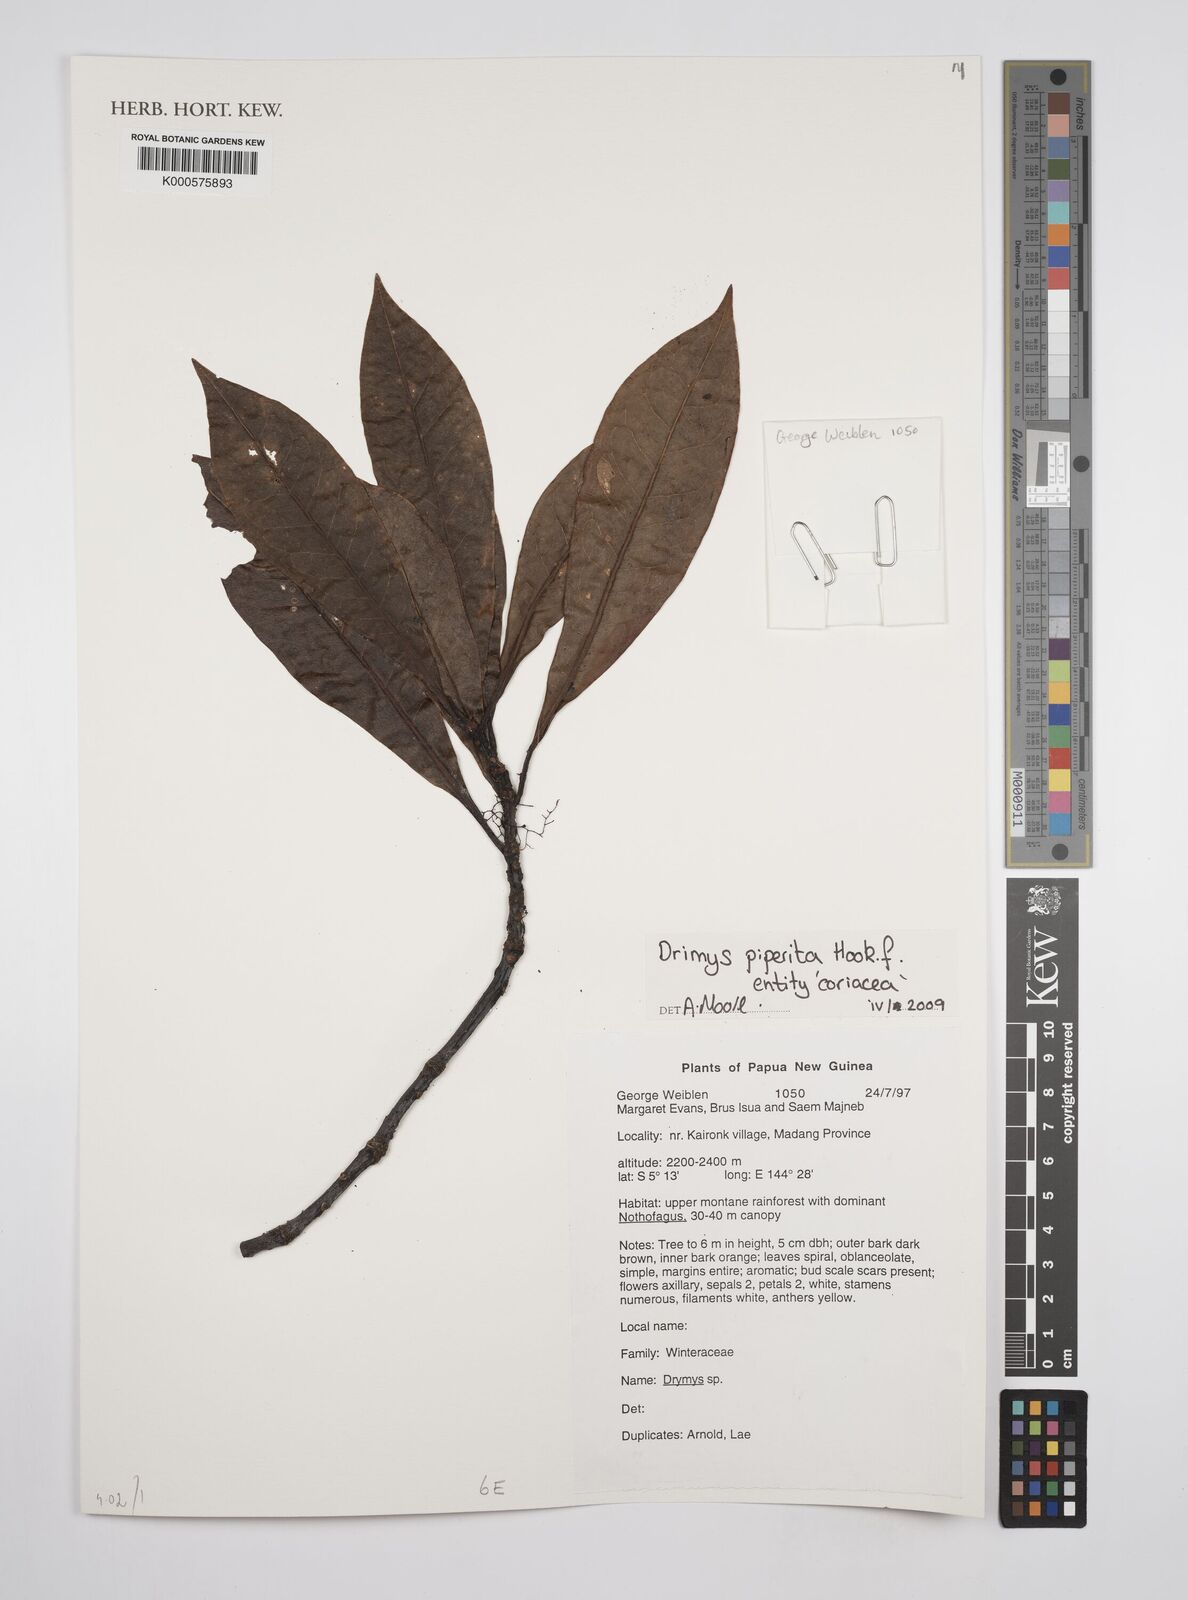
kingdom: Plantae
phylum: Tracheophyta
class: Magnoliopsida
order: Canellales
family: Winteraceae
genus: Drimys
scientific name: Drimys piperita
